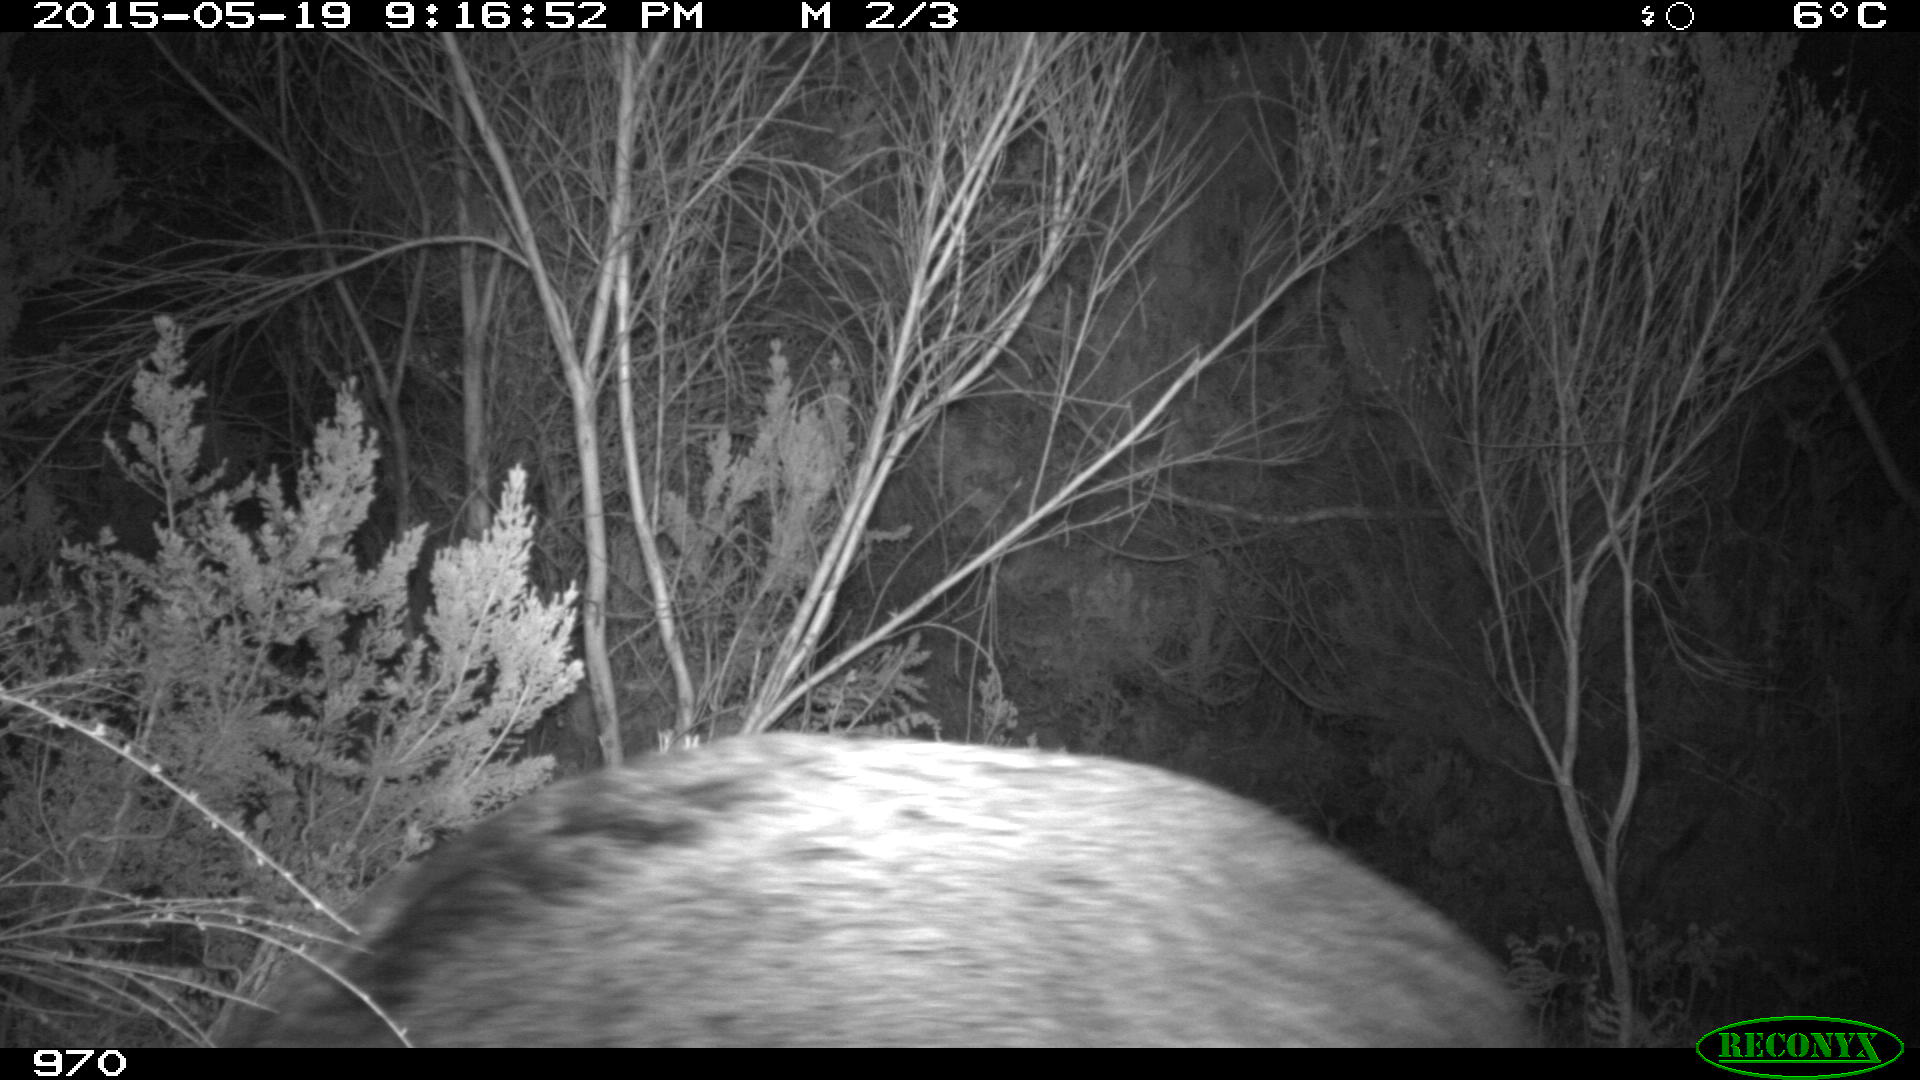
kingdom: Animalia
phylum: Chordata
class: Mammalia
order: Artiodactyla
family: Suidae
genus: Sus
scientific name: Sus scrofa
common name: Wild boar
